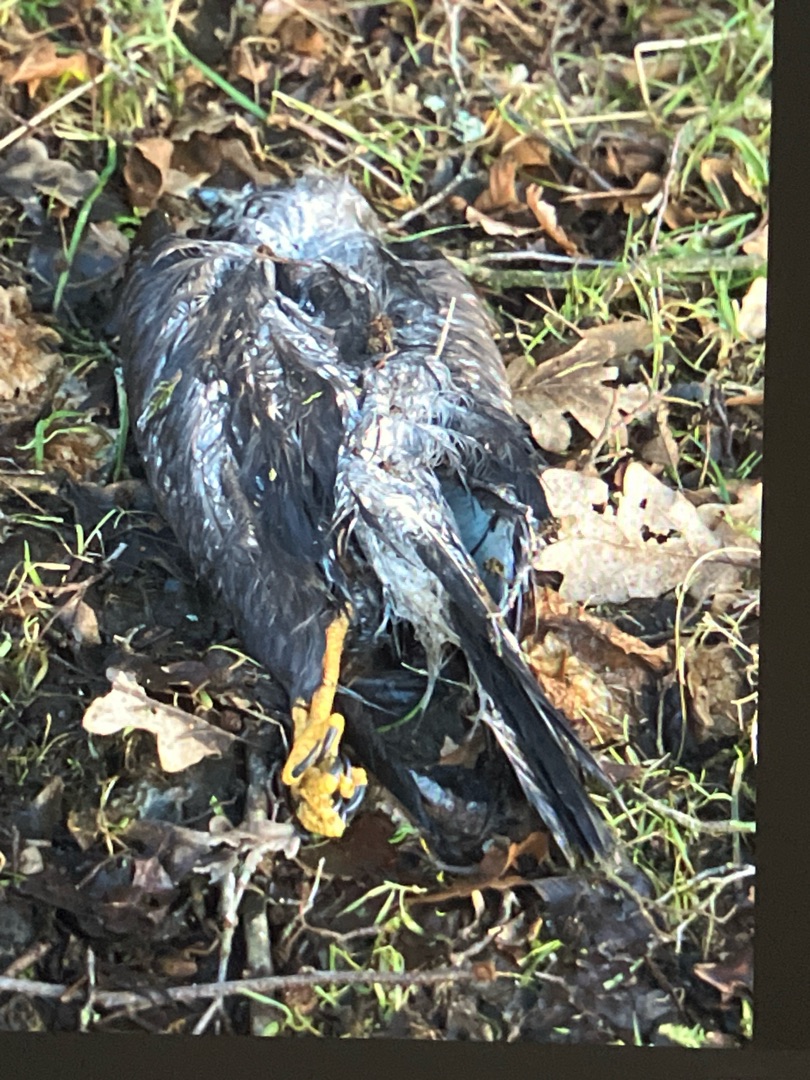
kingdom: Animalia
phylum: Chordata
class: Aves
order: Accipitriformes
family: Accipitridae
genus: Accipiter
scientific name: Accipiter nisus
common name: Spurvehøg
